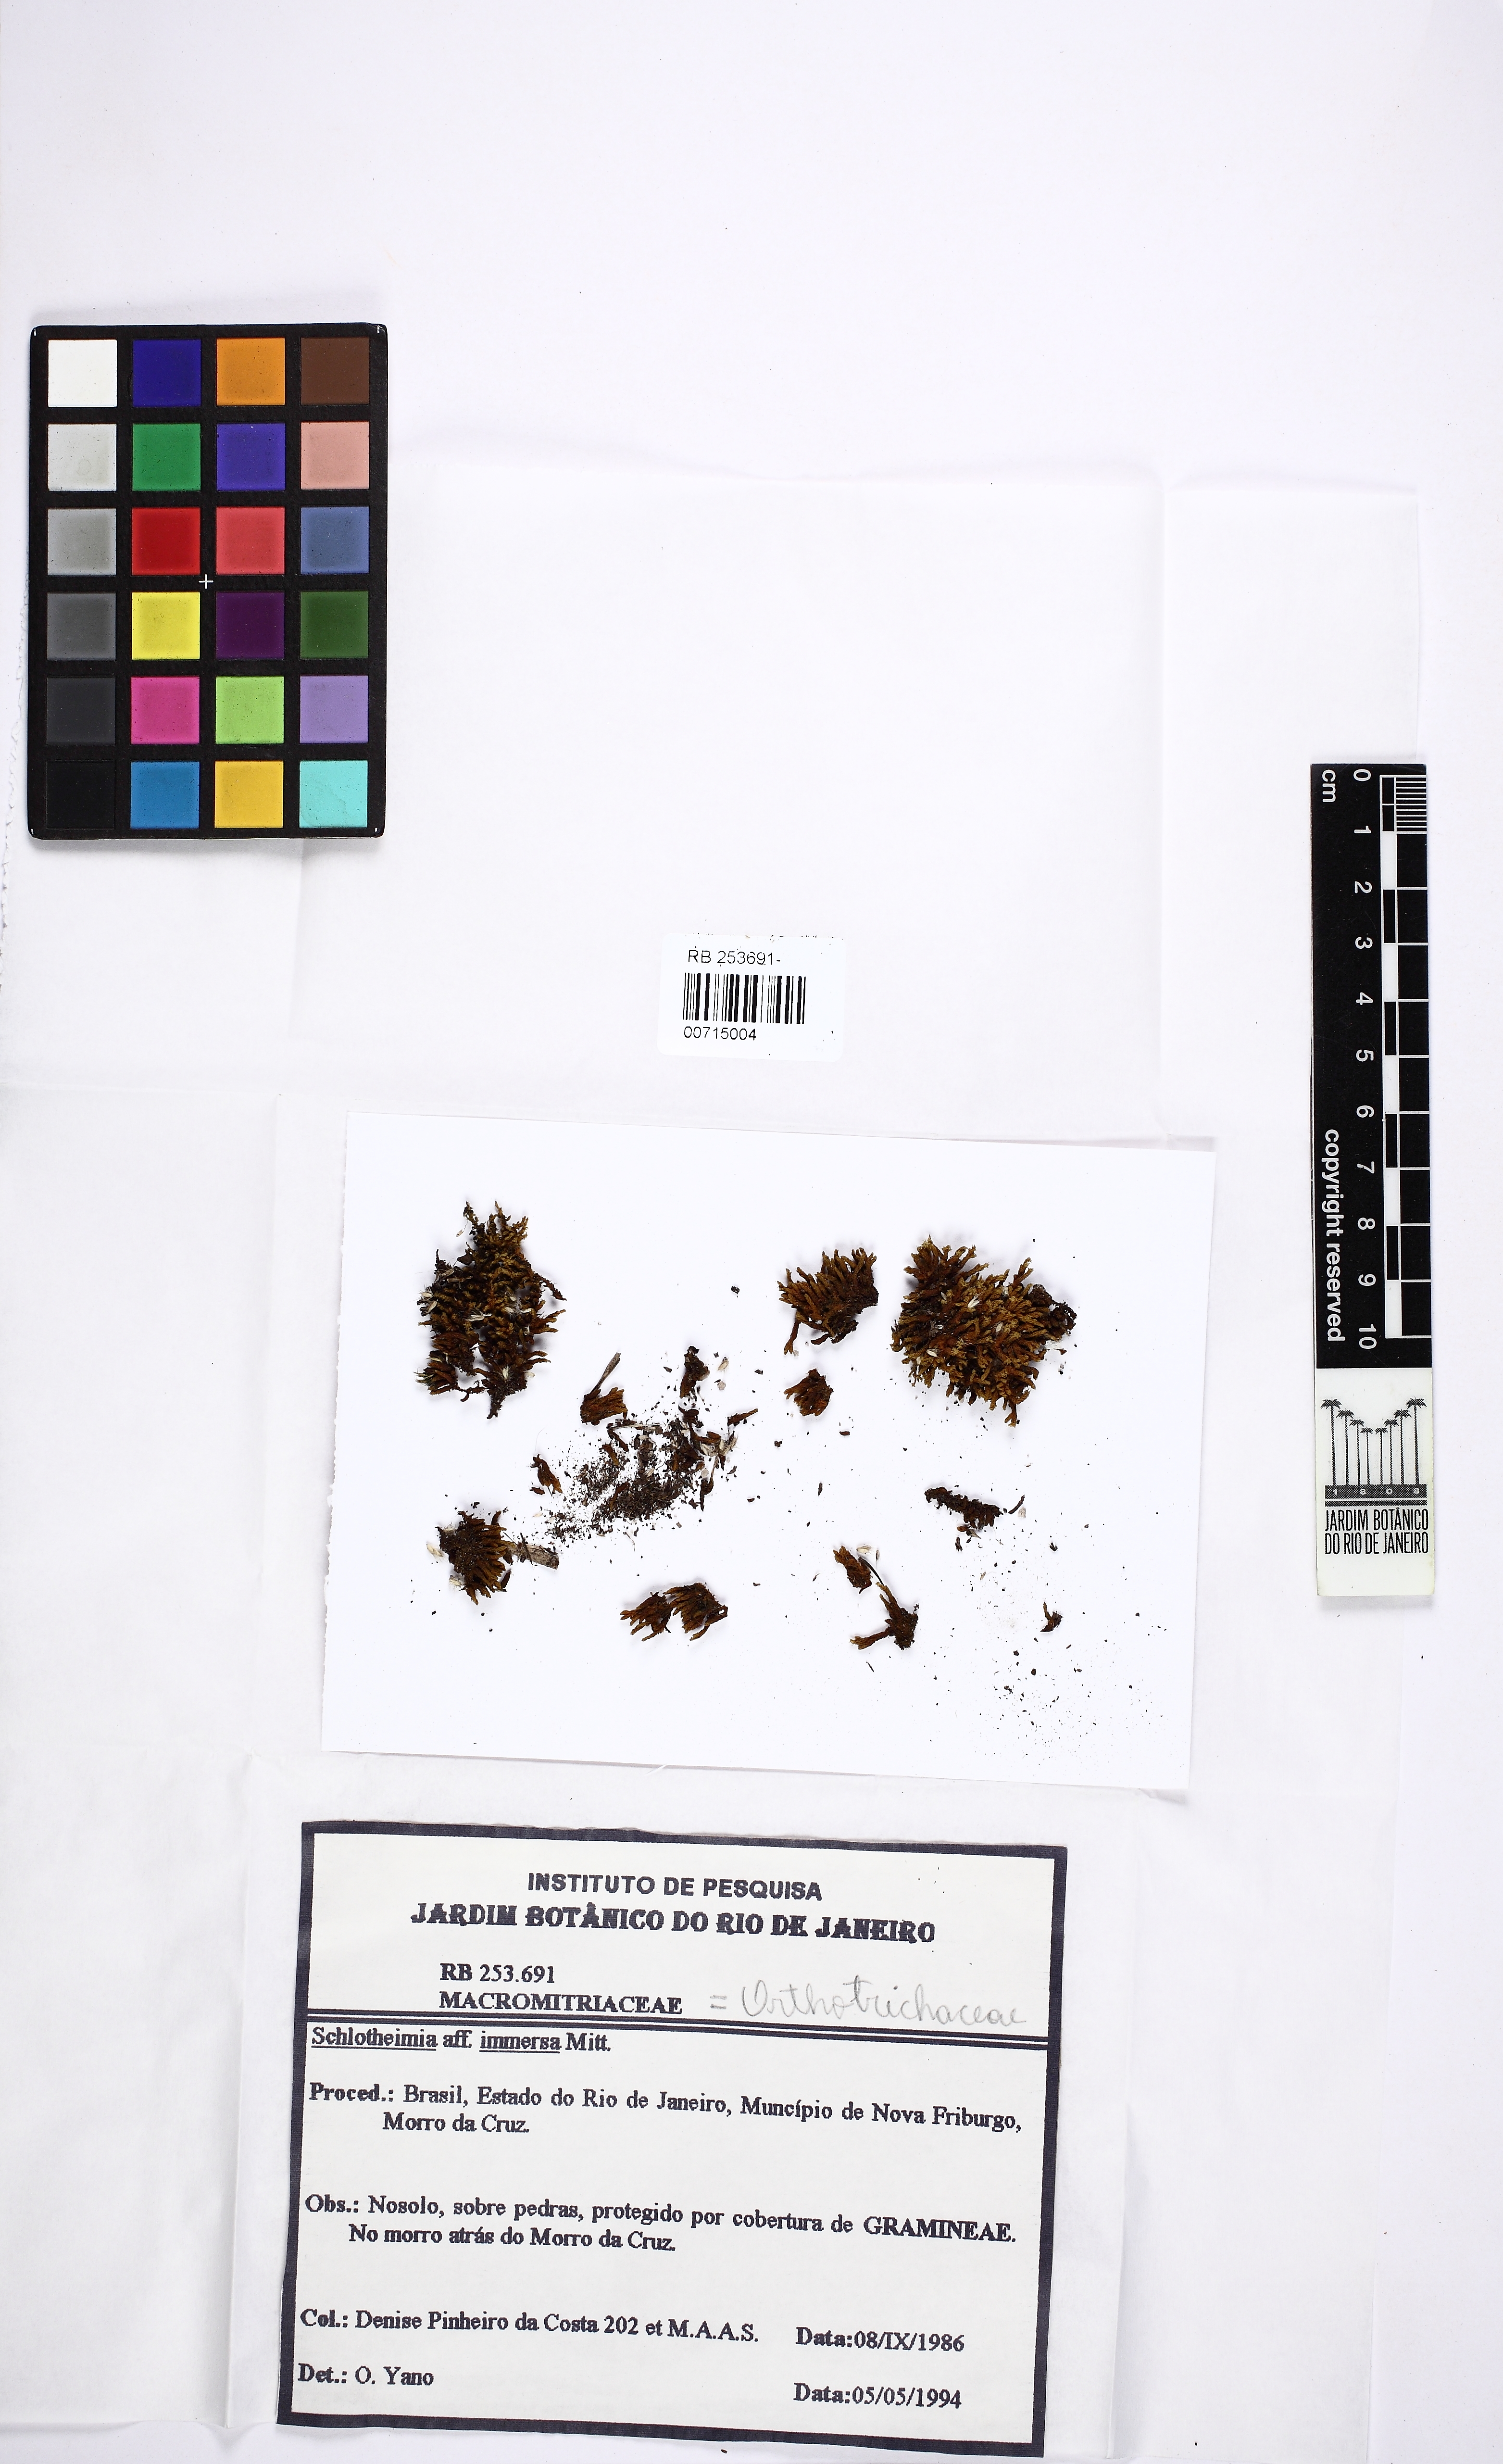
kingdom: Plantae
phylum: Bryophyta
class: Bryopsida
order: Orthotrichales
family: Orthotrichaceae
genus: Schlotheimia
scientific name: Schlotheimia appressifolia
